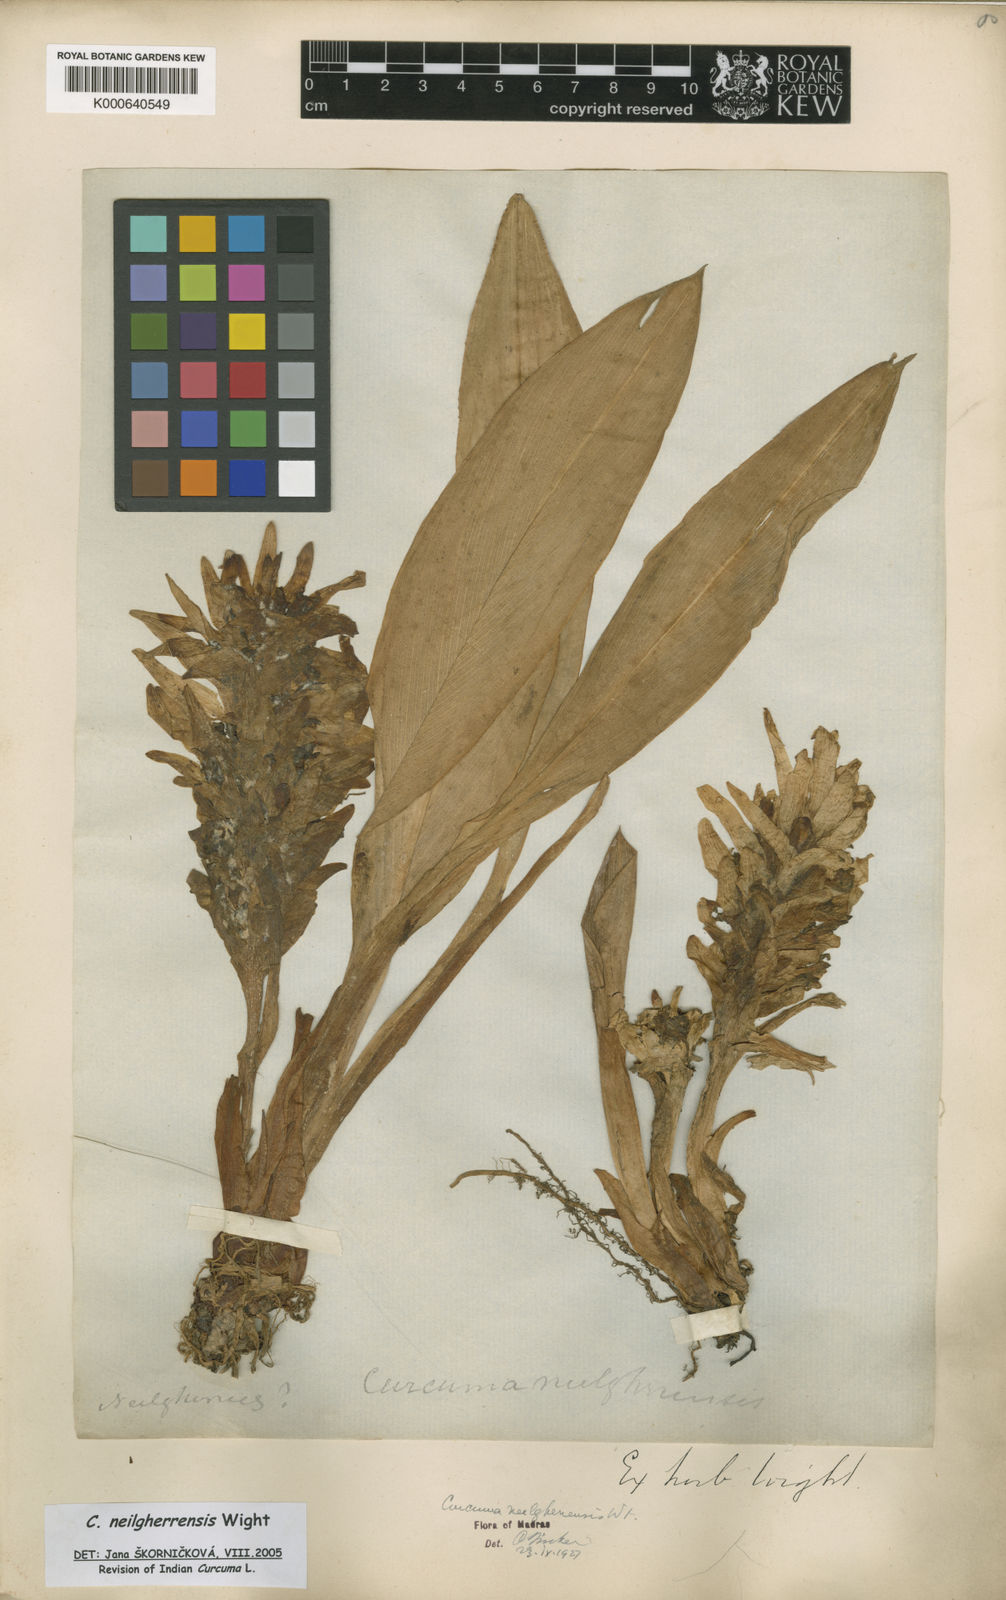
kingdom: Plantae
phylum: Tracheophyta
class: Liliopsida
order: Zingiberales
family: Zingiberaceae
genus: Curcuma
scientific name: Curcuma neilgherrensis
